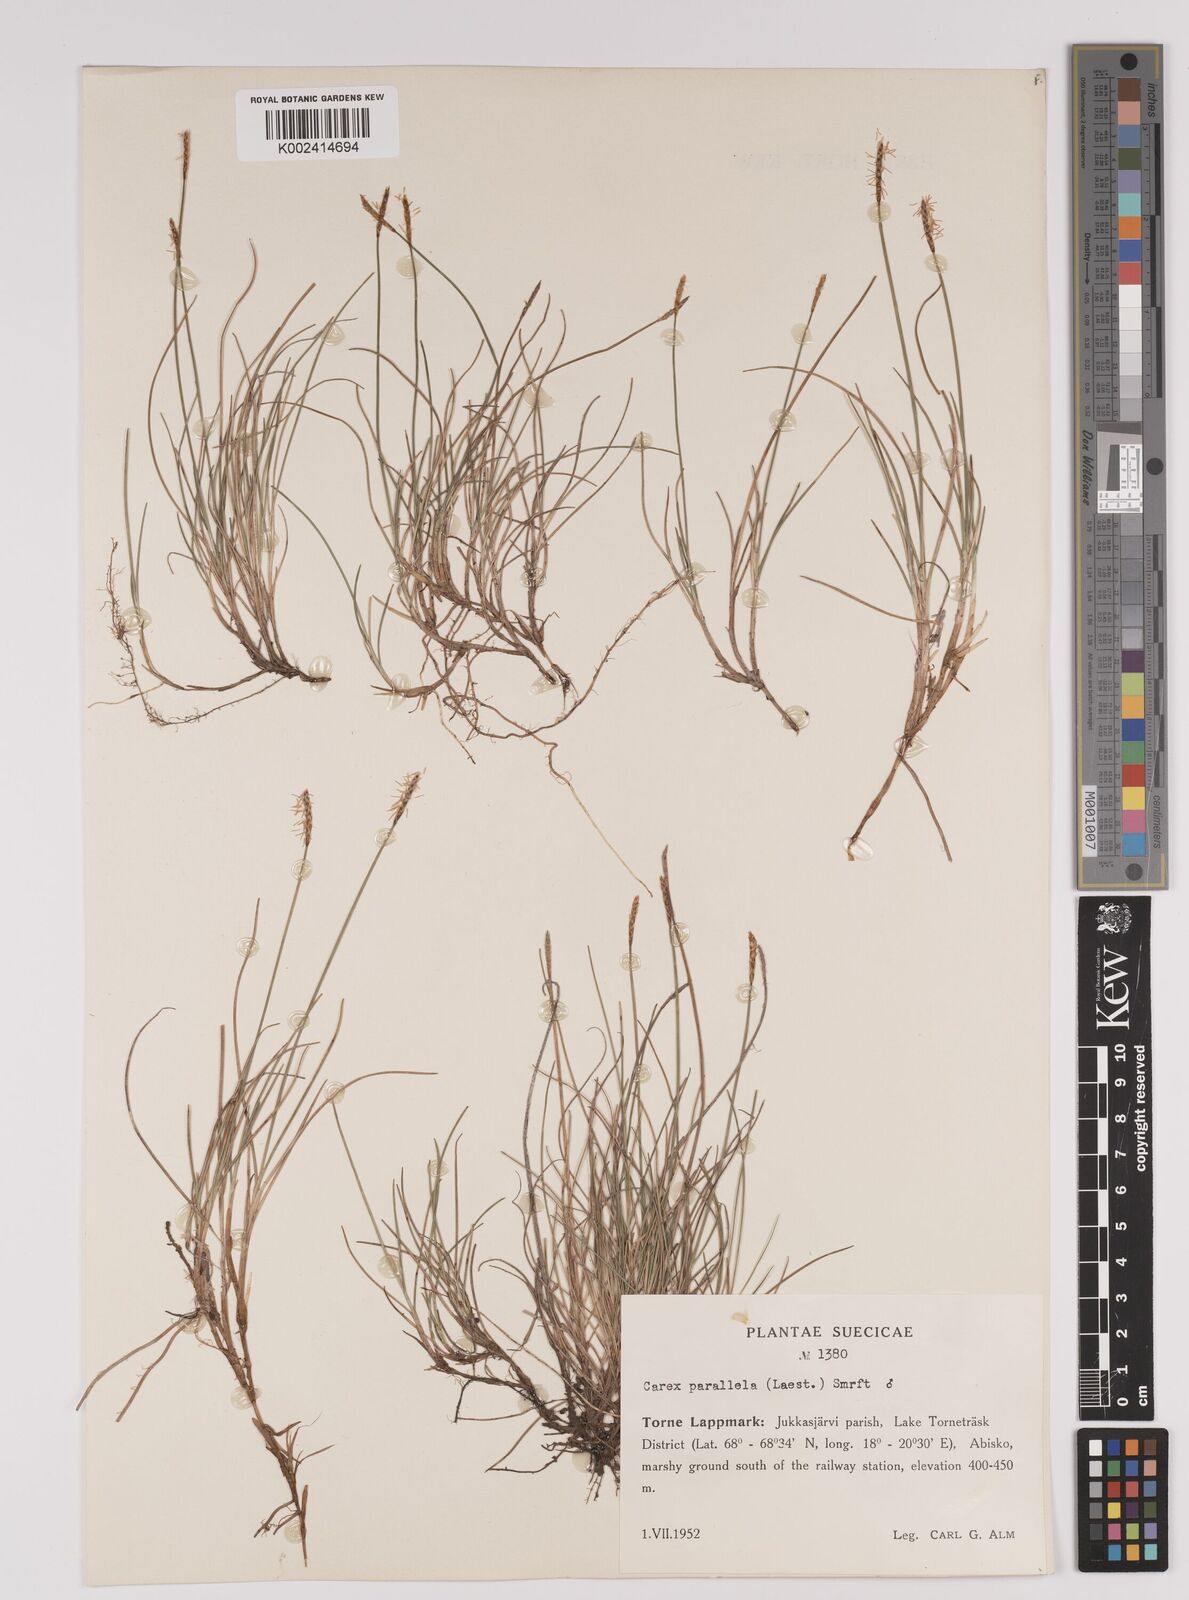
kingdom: Plantae
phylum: Tracheophyta
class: Liliopsida
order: Poales
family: Cyperaceae
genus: Carex
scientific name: Carex parallela
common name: Parallel sedge
